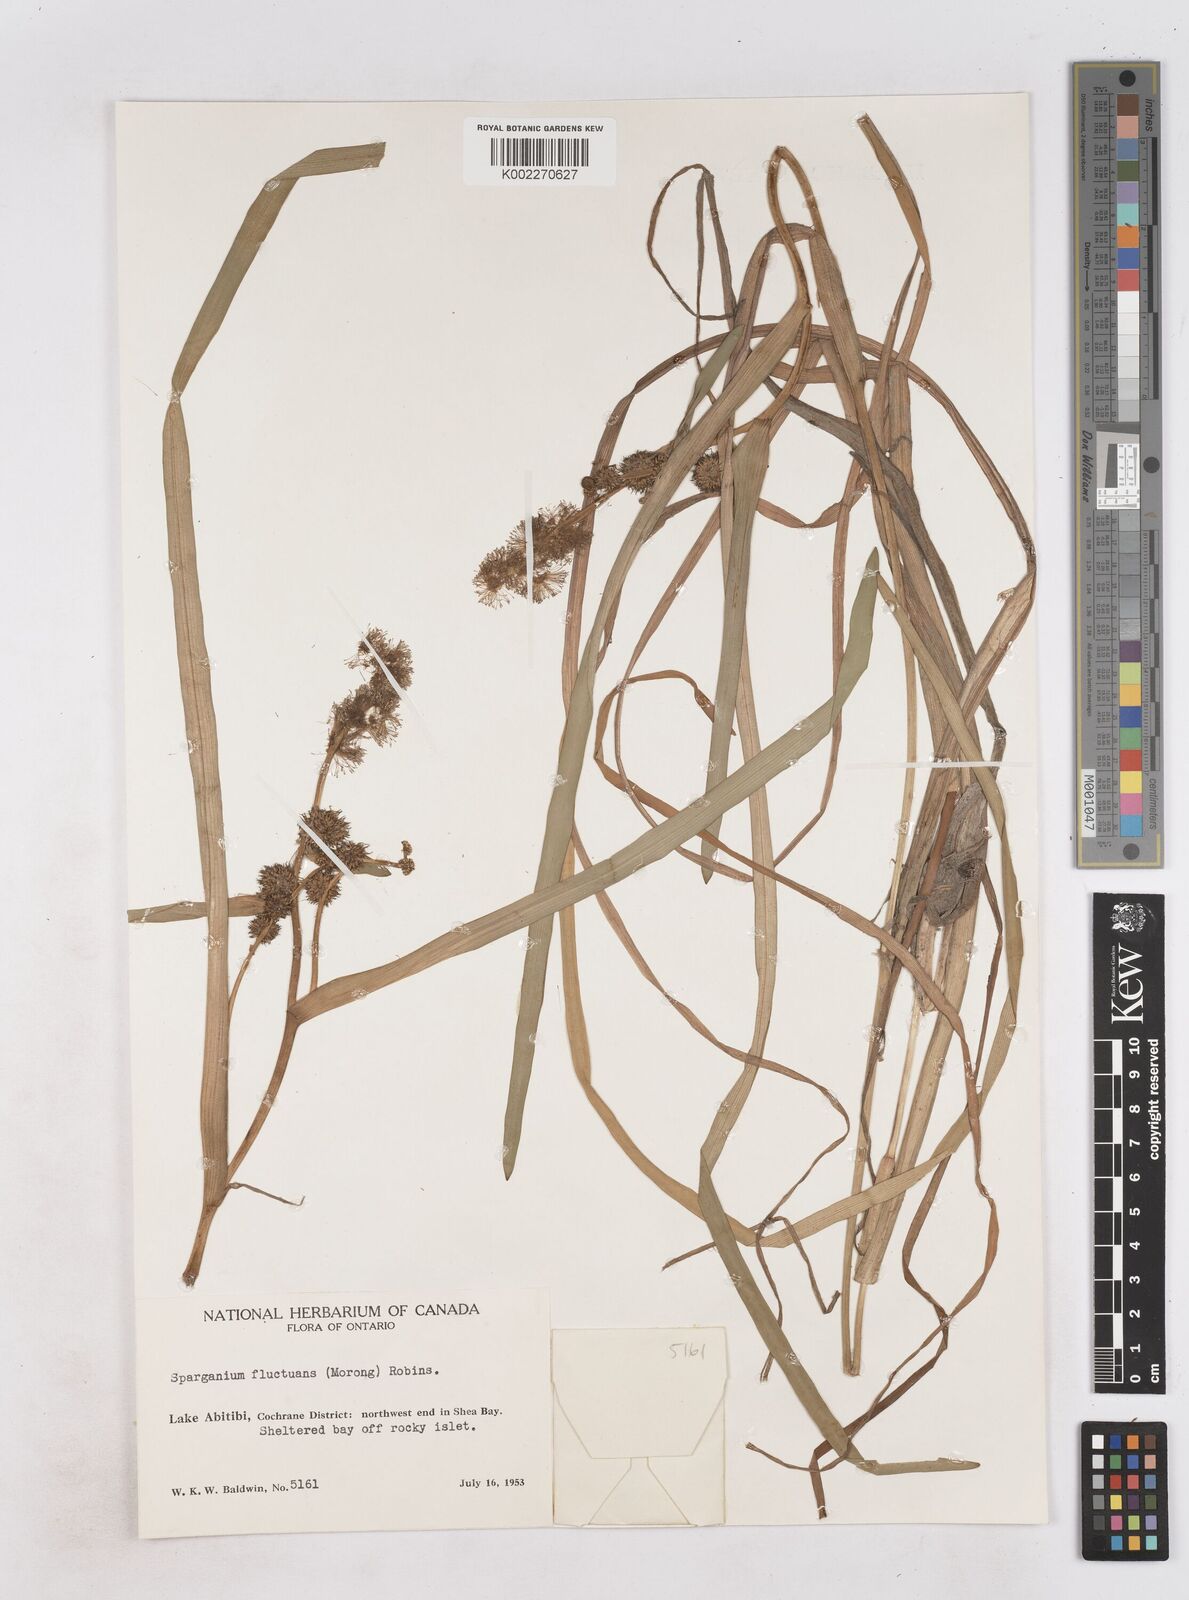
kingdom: Plantae
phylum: Tracheophyta
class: Liliopsida
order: Poales
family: Typhaceae
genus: Sparganium
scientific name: Sparganium fluctuans
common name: Floating burreed
